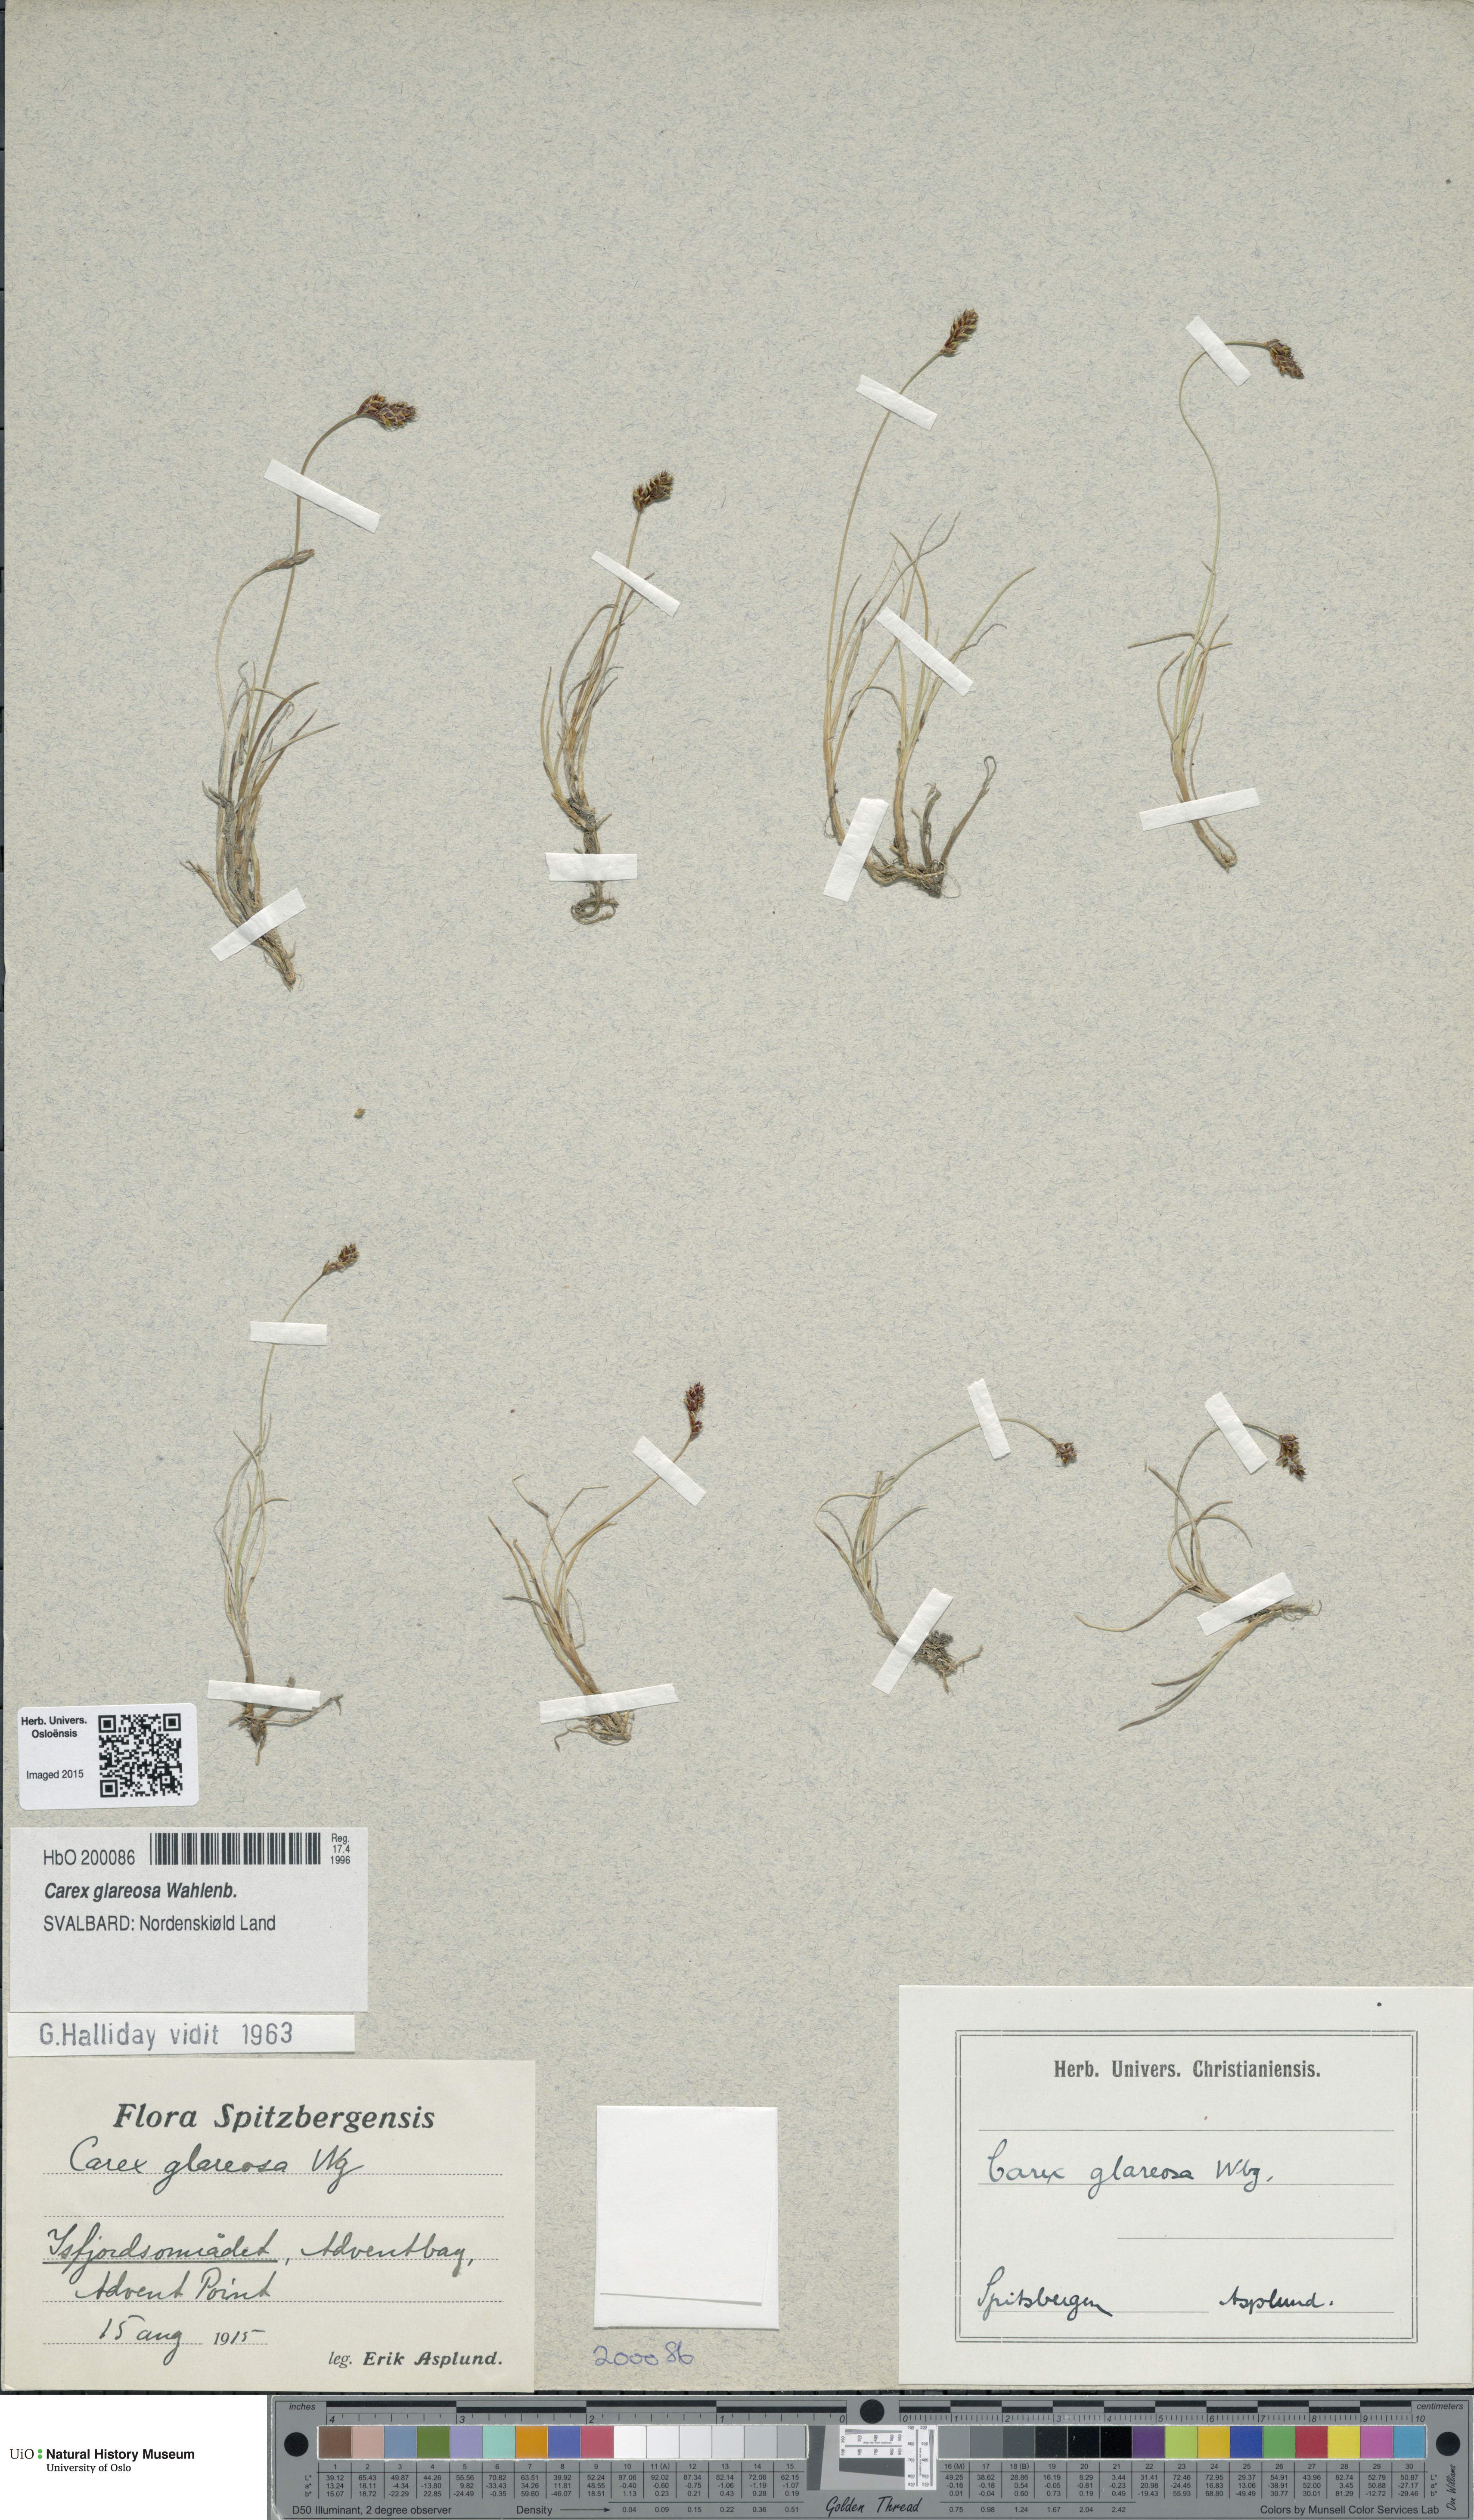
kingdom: Plantae
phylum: Tracheophyta
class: Liliopsida
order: Poales
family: Cyperaceae
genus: Carex
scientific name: Carex glareosa
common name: Clustered sedge
